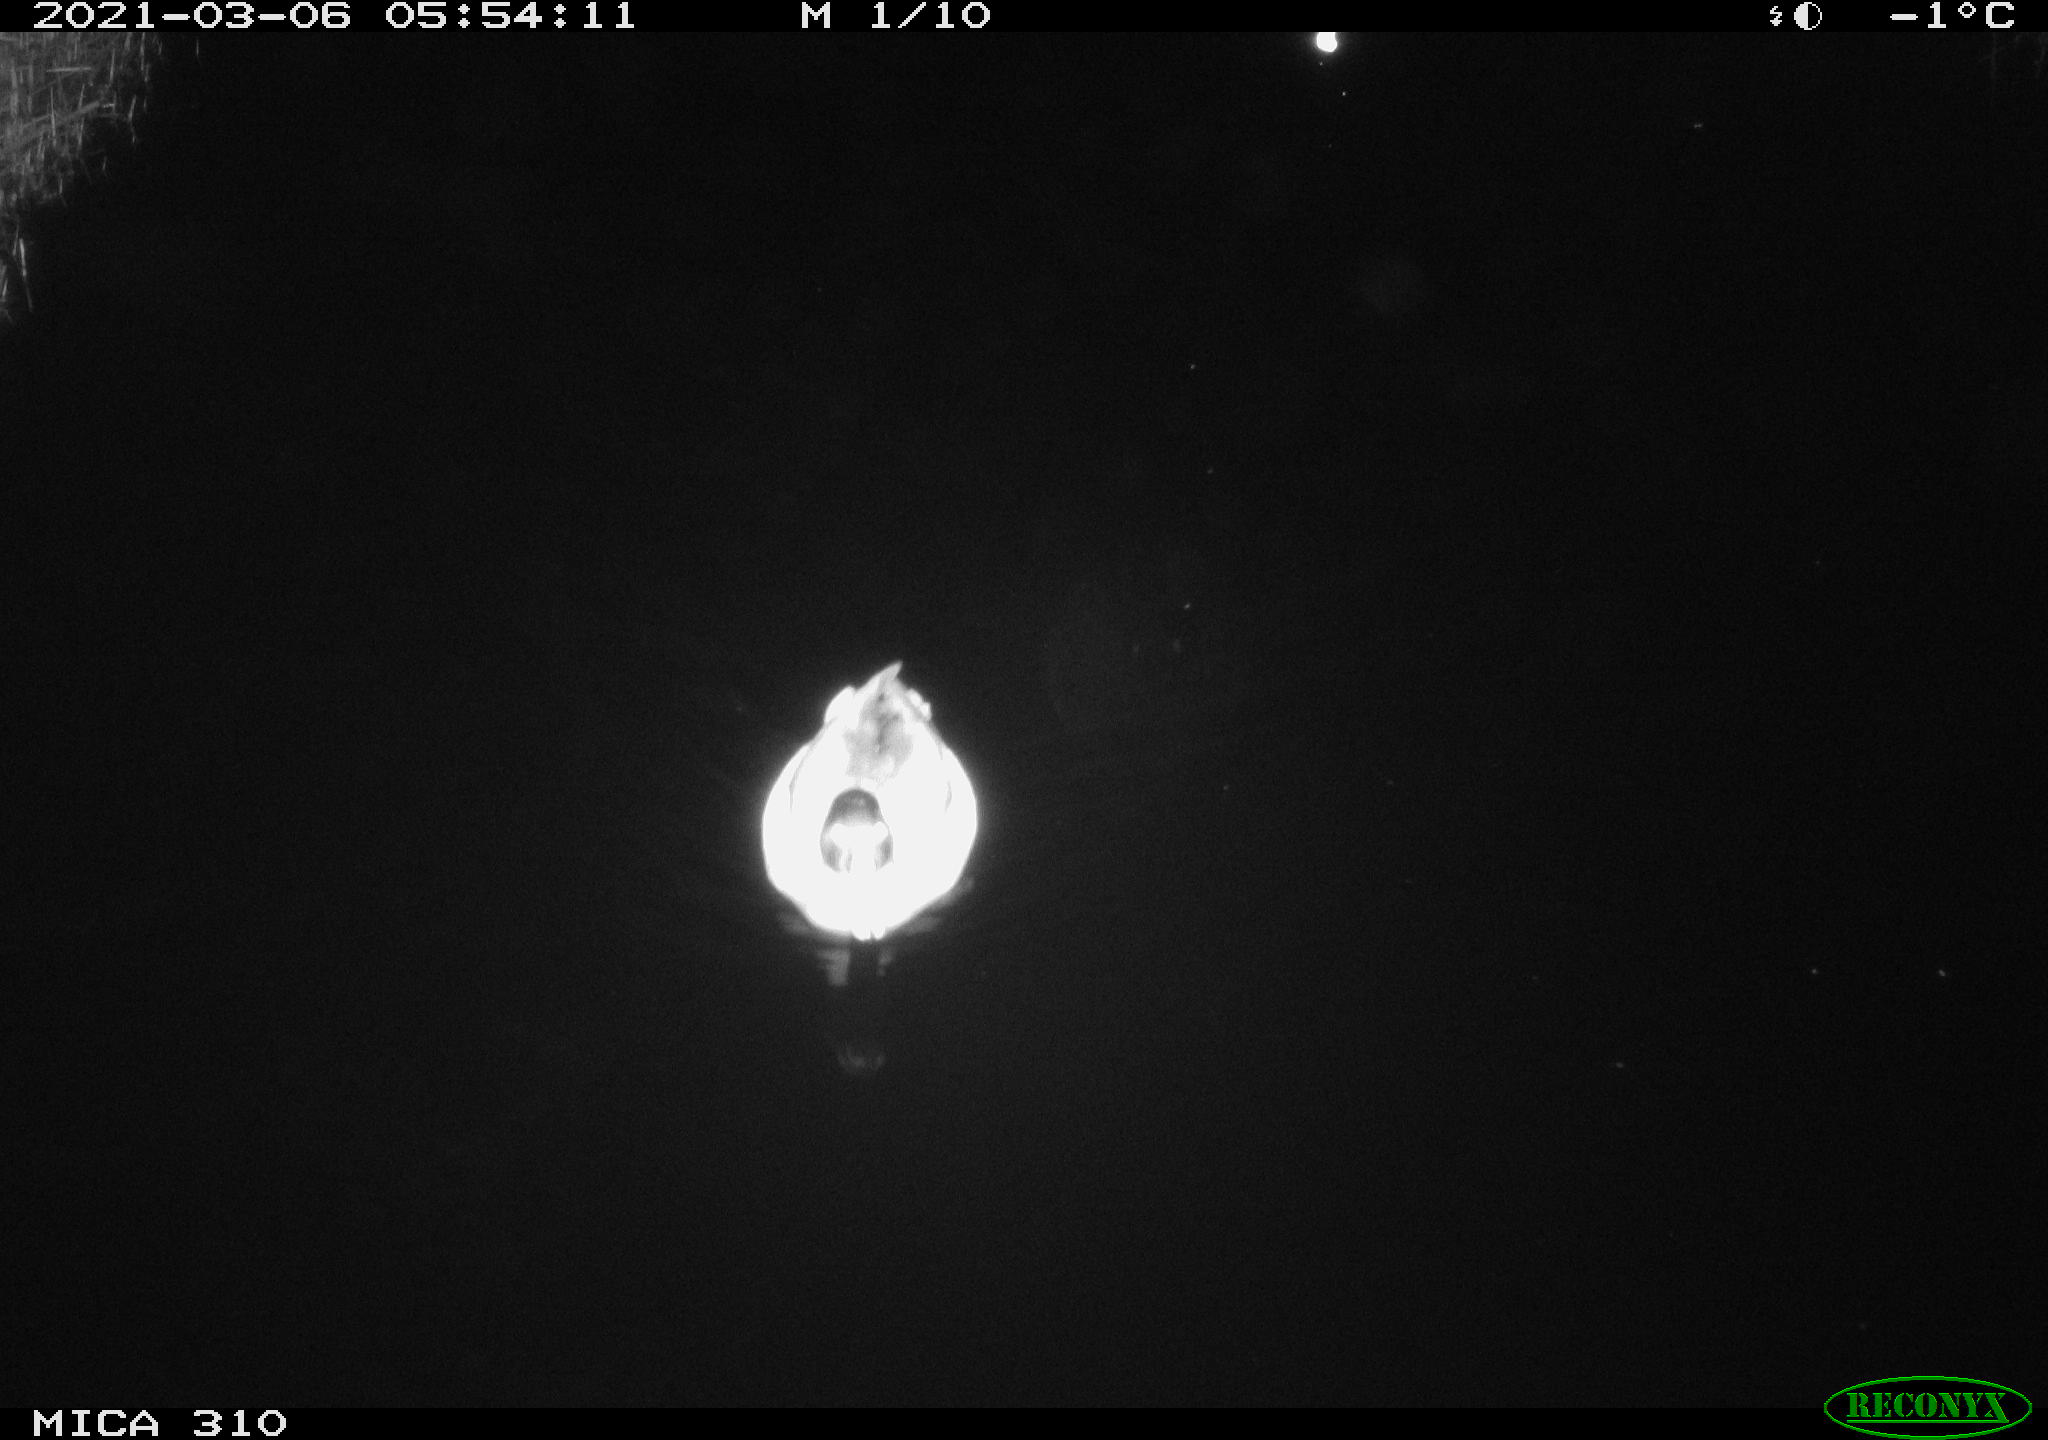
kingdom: Animalia
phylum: Chordata
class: Aves
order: Anseriformes
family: Anatidae
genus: Anas
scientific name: Anas platyrhynchos
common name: Mallard
